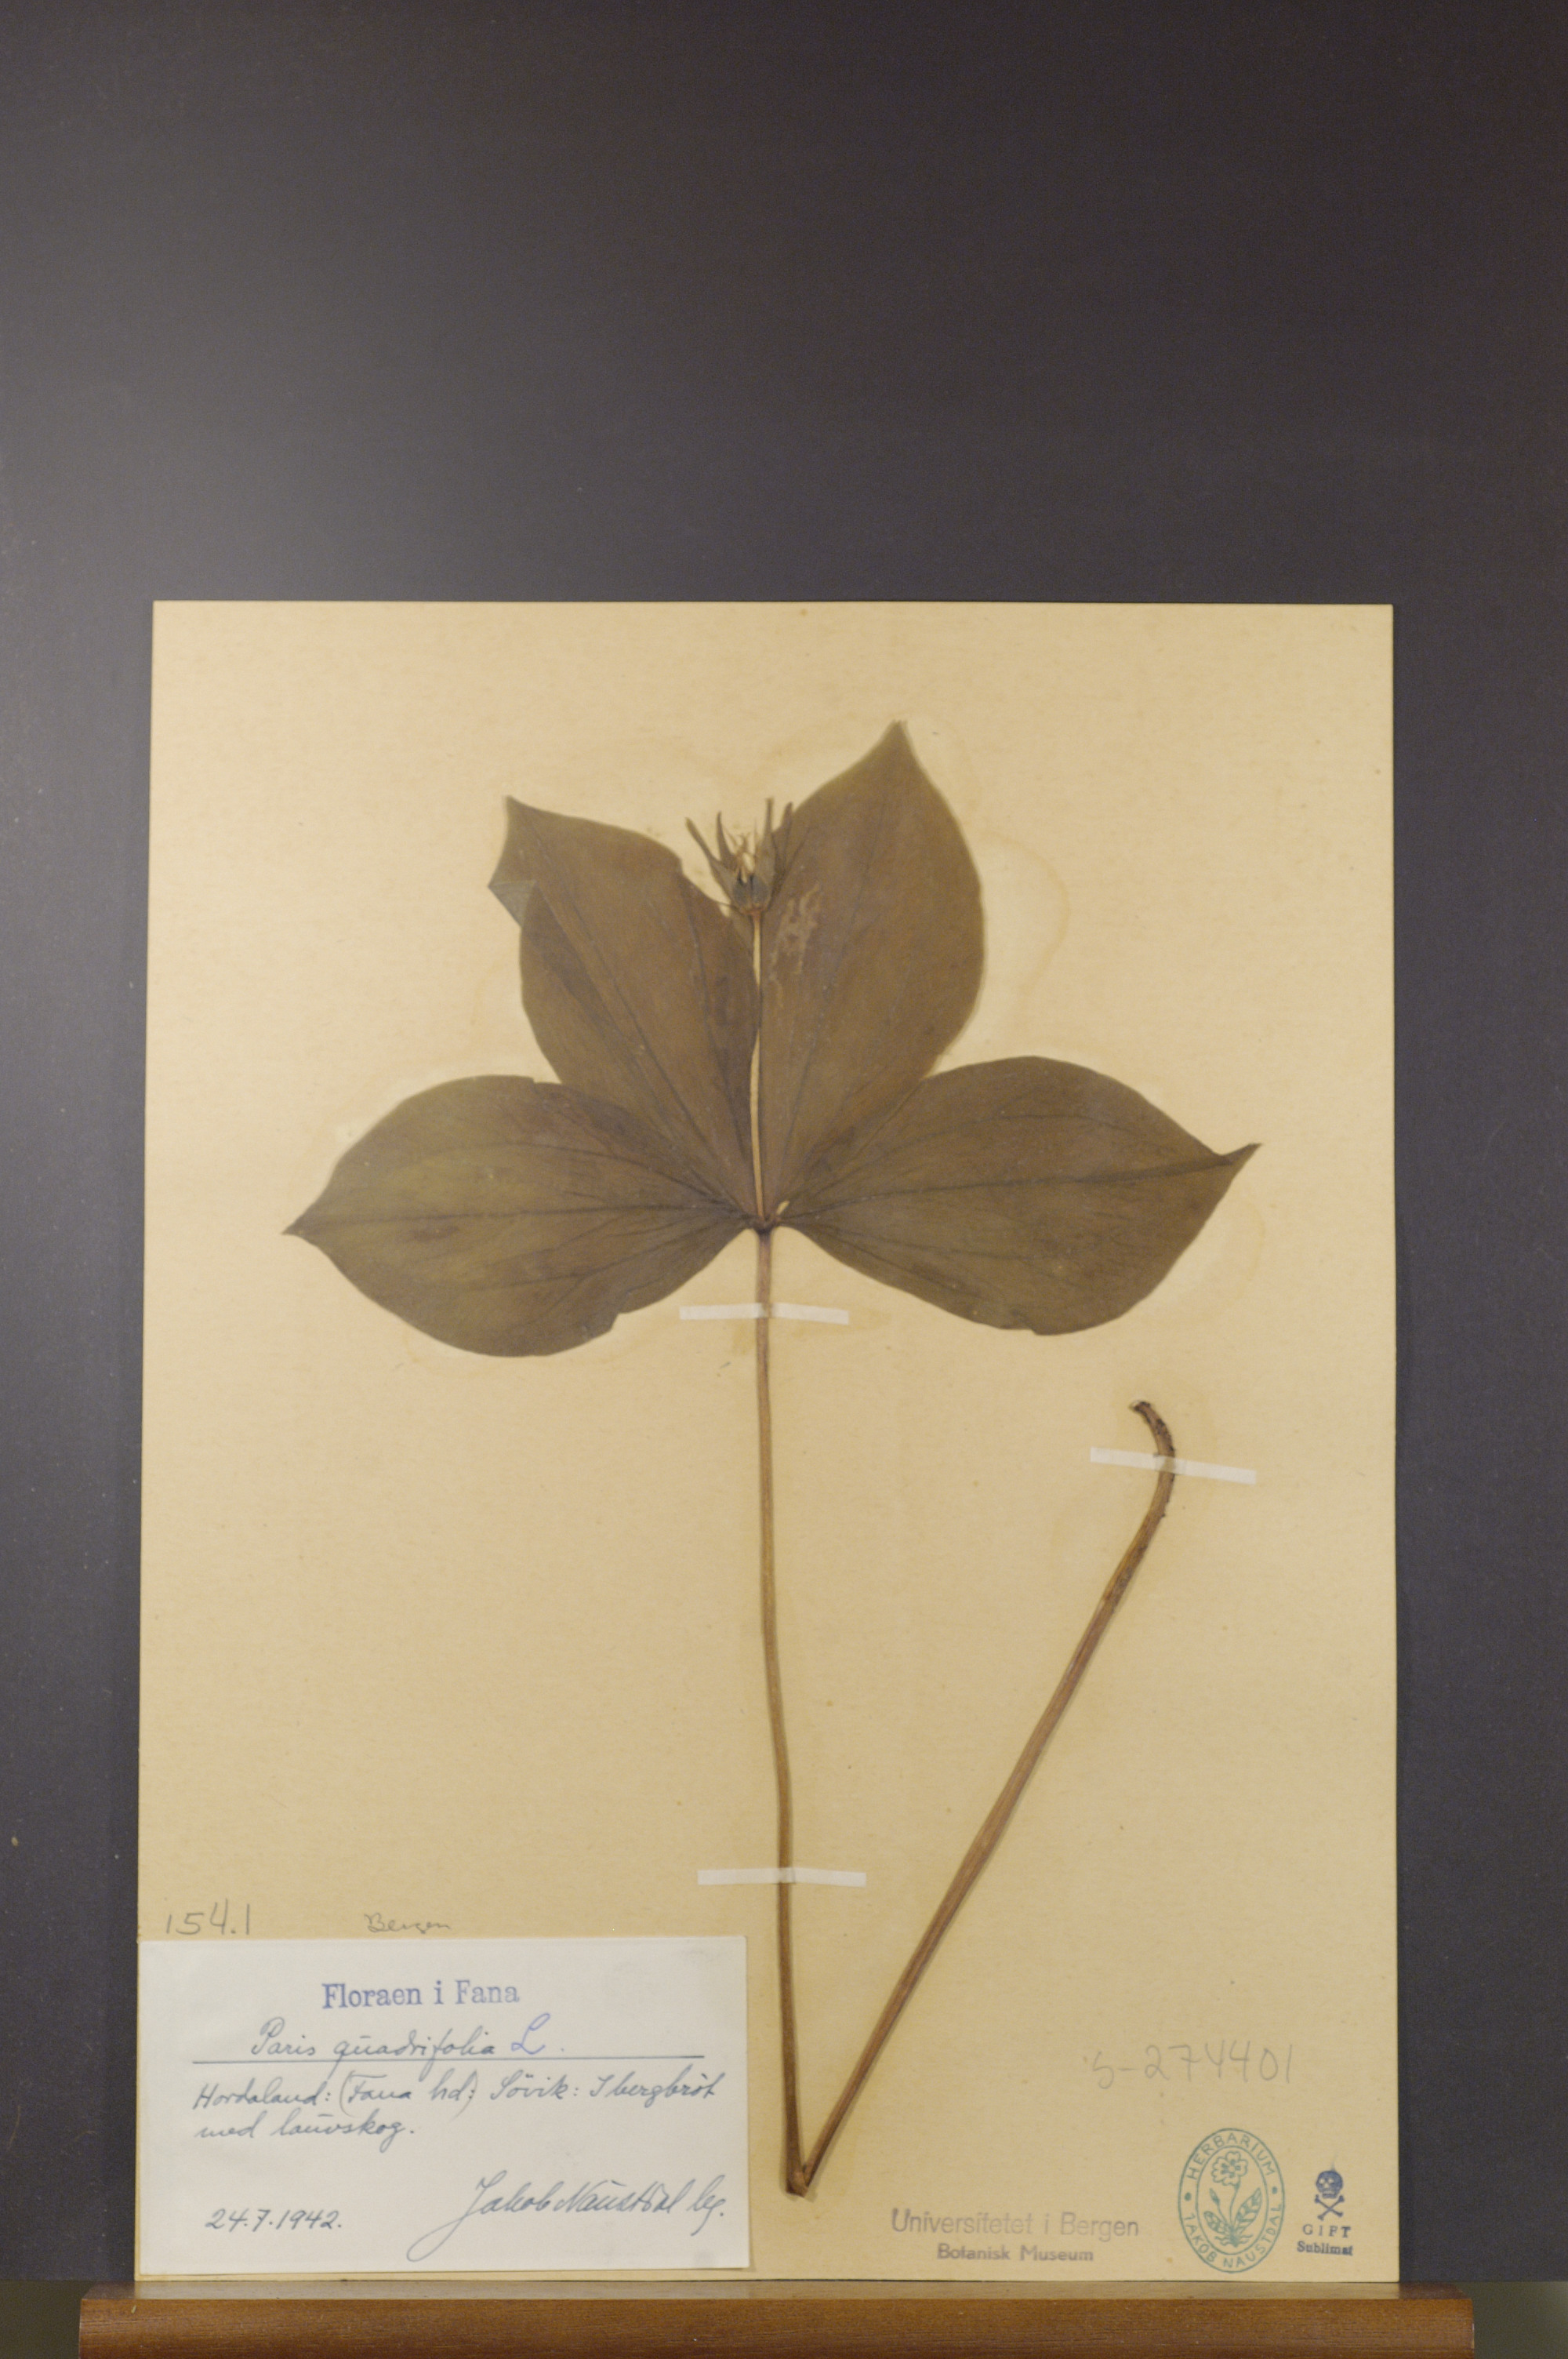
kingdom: Plantae
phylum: Tracheophyta
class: Liliopsida
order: Liliales
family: Melanthiaceae
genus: Paris
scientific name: Paris quadrifolia
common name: Herb-paris
